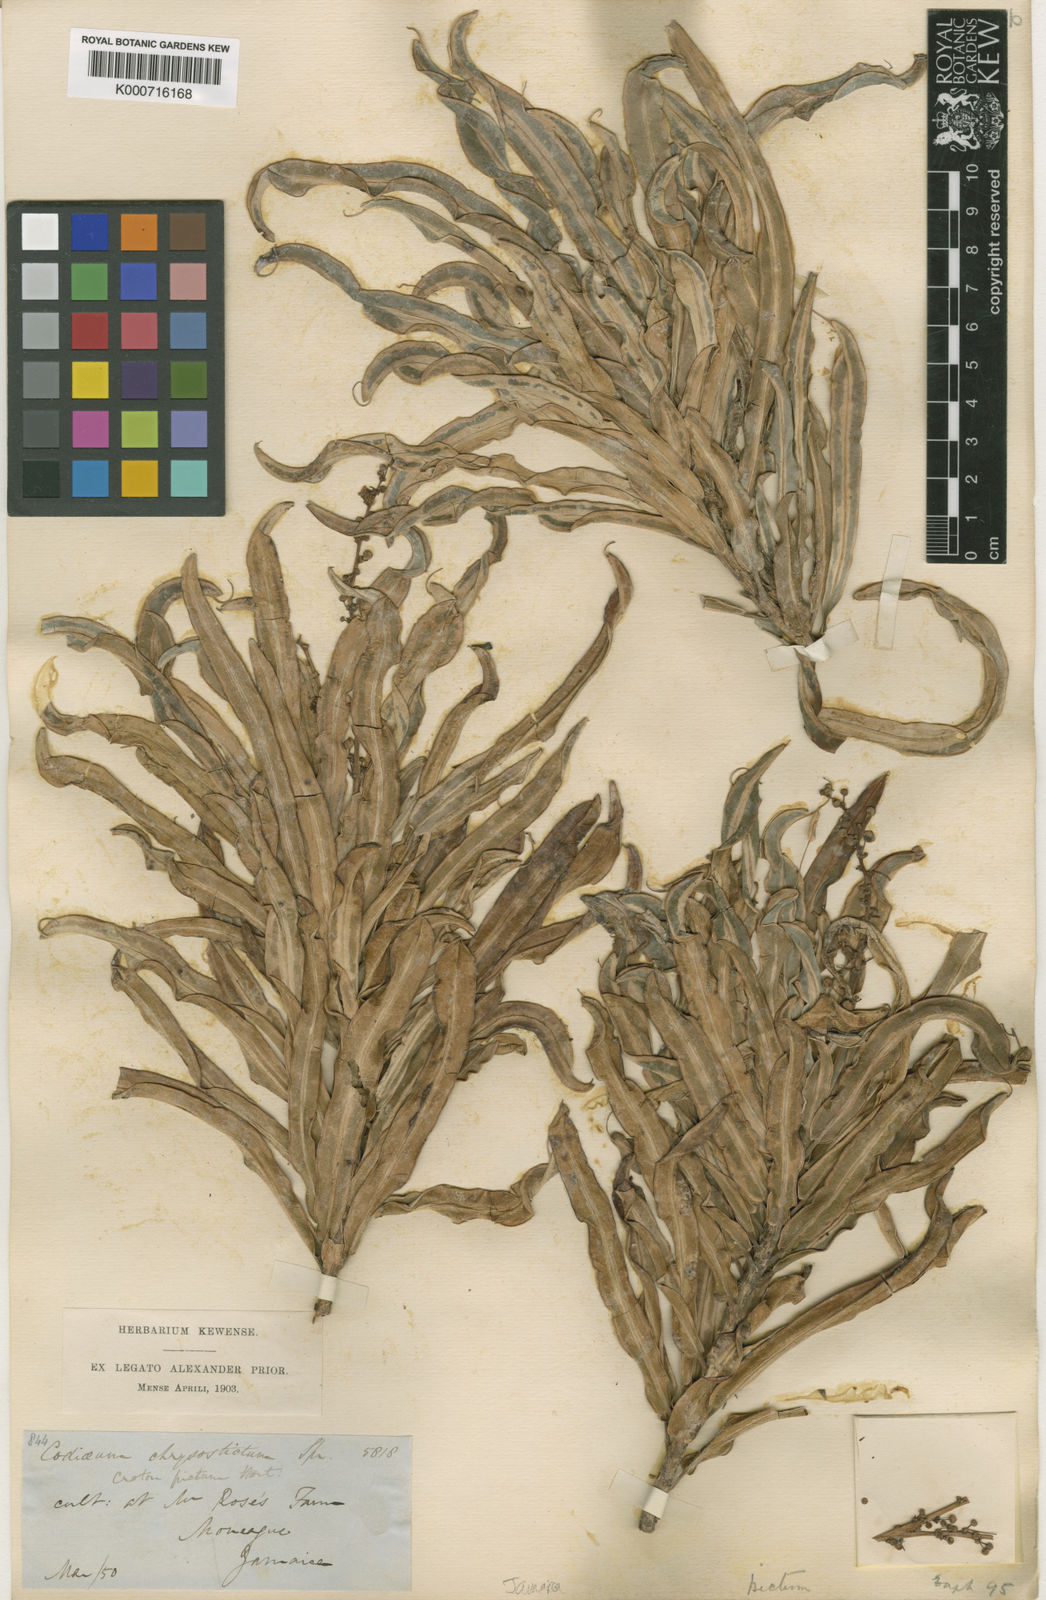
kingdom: Plantae
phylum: Tracheophyta
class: Magnoliopsida
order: Malpighiales
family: Euphorbiaceae
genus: Codiaeum
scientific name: Codiaeum variegatum
